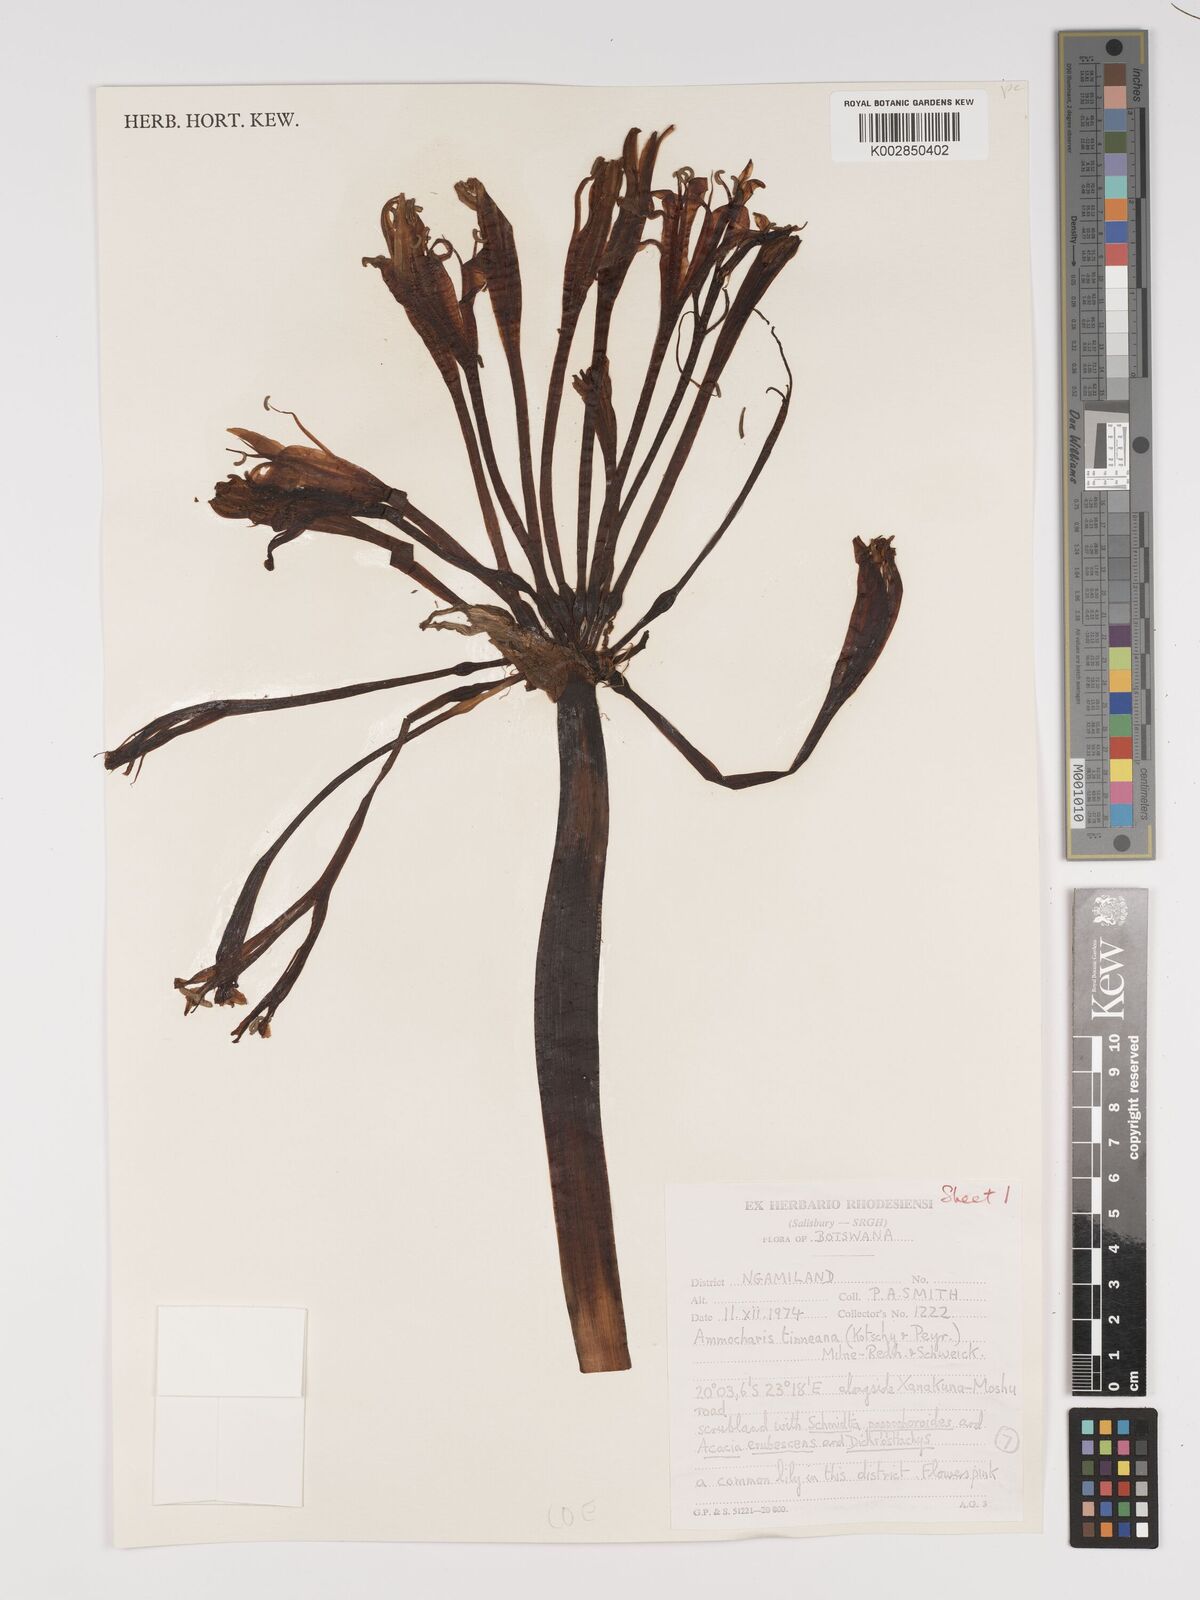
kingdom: Plantae
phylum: Tracheophyta
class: Liliopsida
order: Asparagales
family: Amaryllidaceae
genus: Ammocharis
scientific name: Ammocharis tinneana
